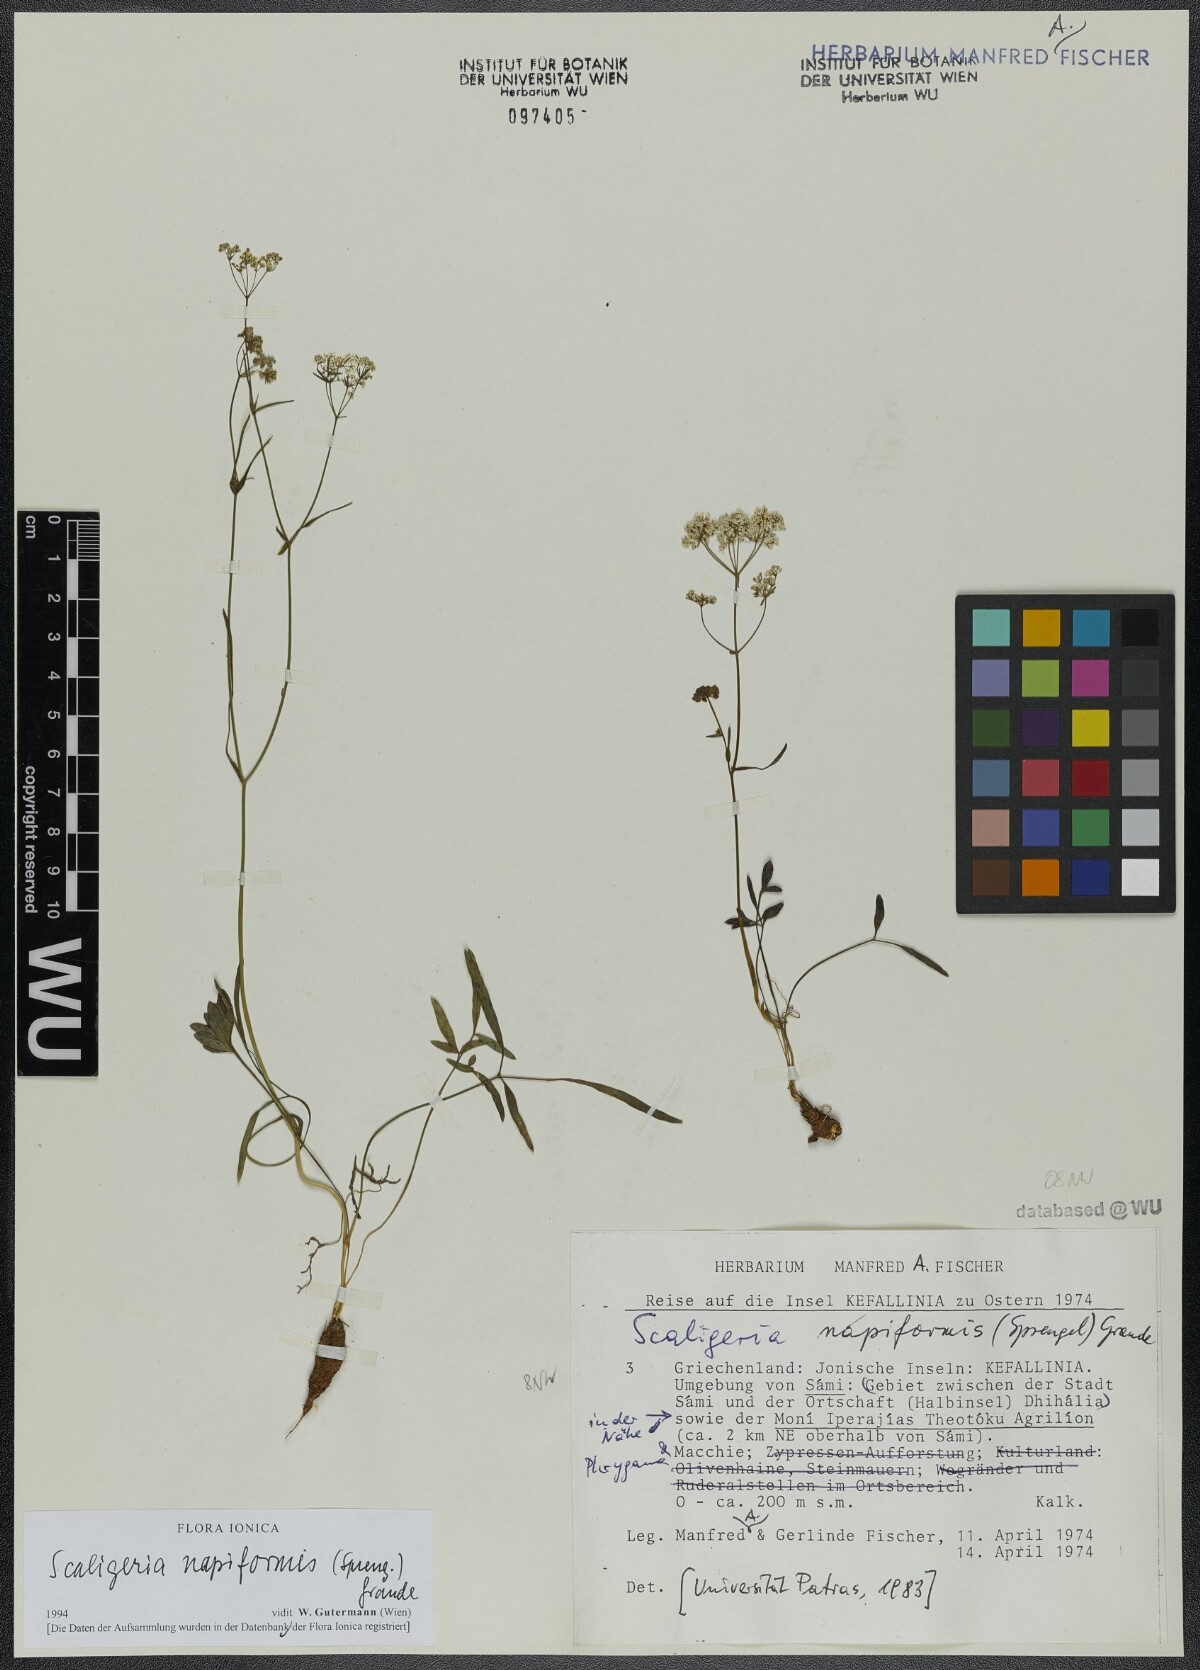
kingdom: Plantae
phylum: Tracheophyta
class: Magnoliopsida
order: Apiales
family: Apiaceae
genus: Scaligeria
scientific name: Scaligeria napiformis
